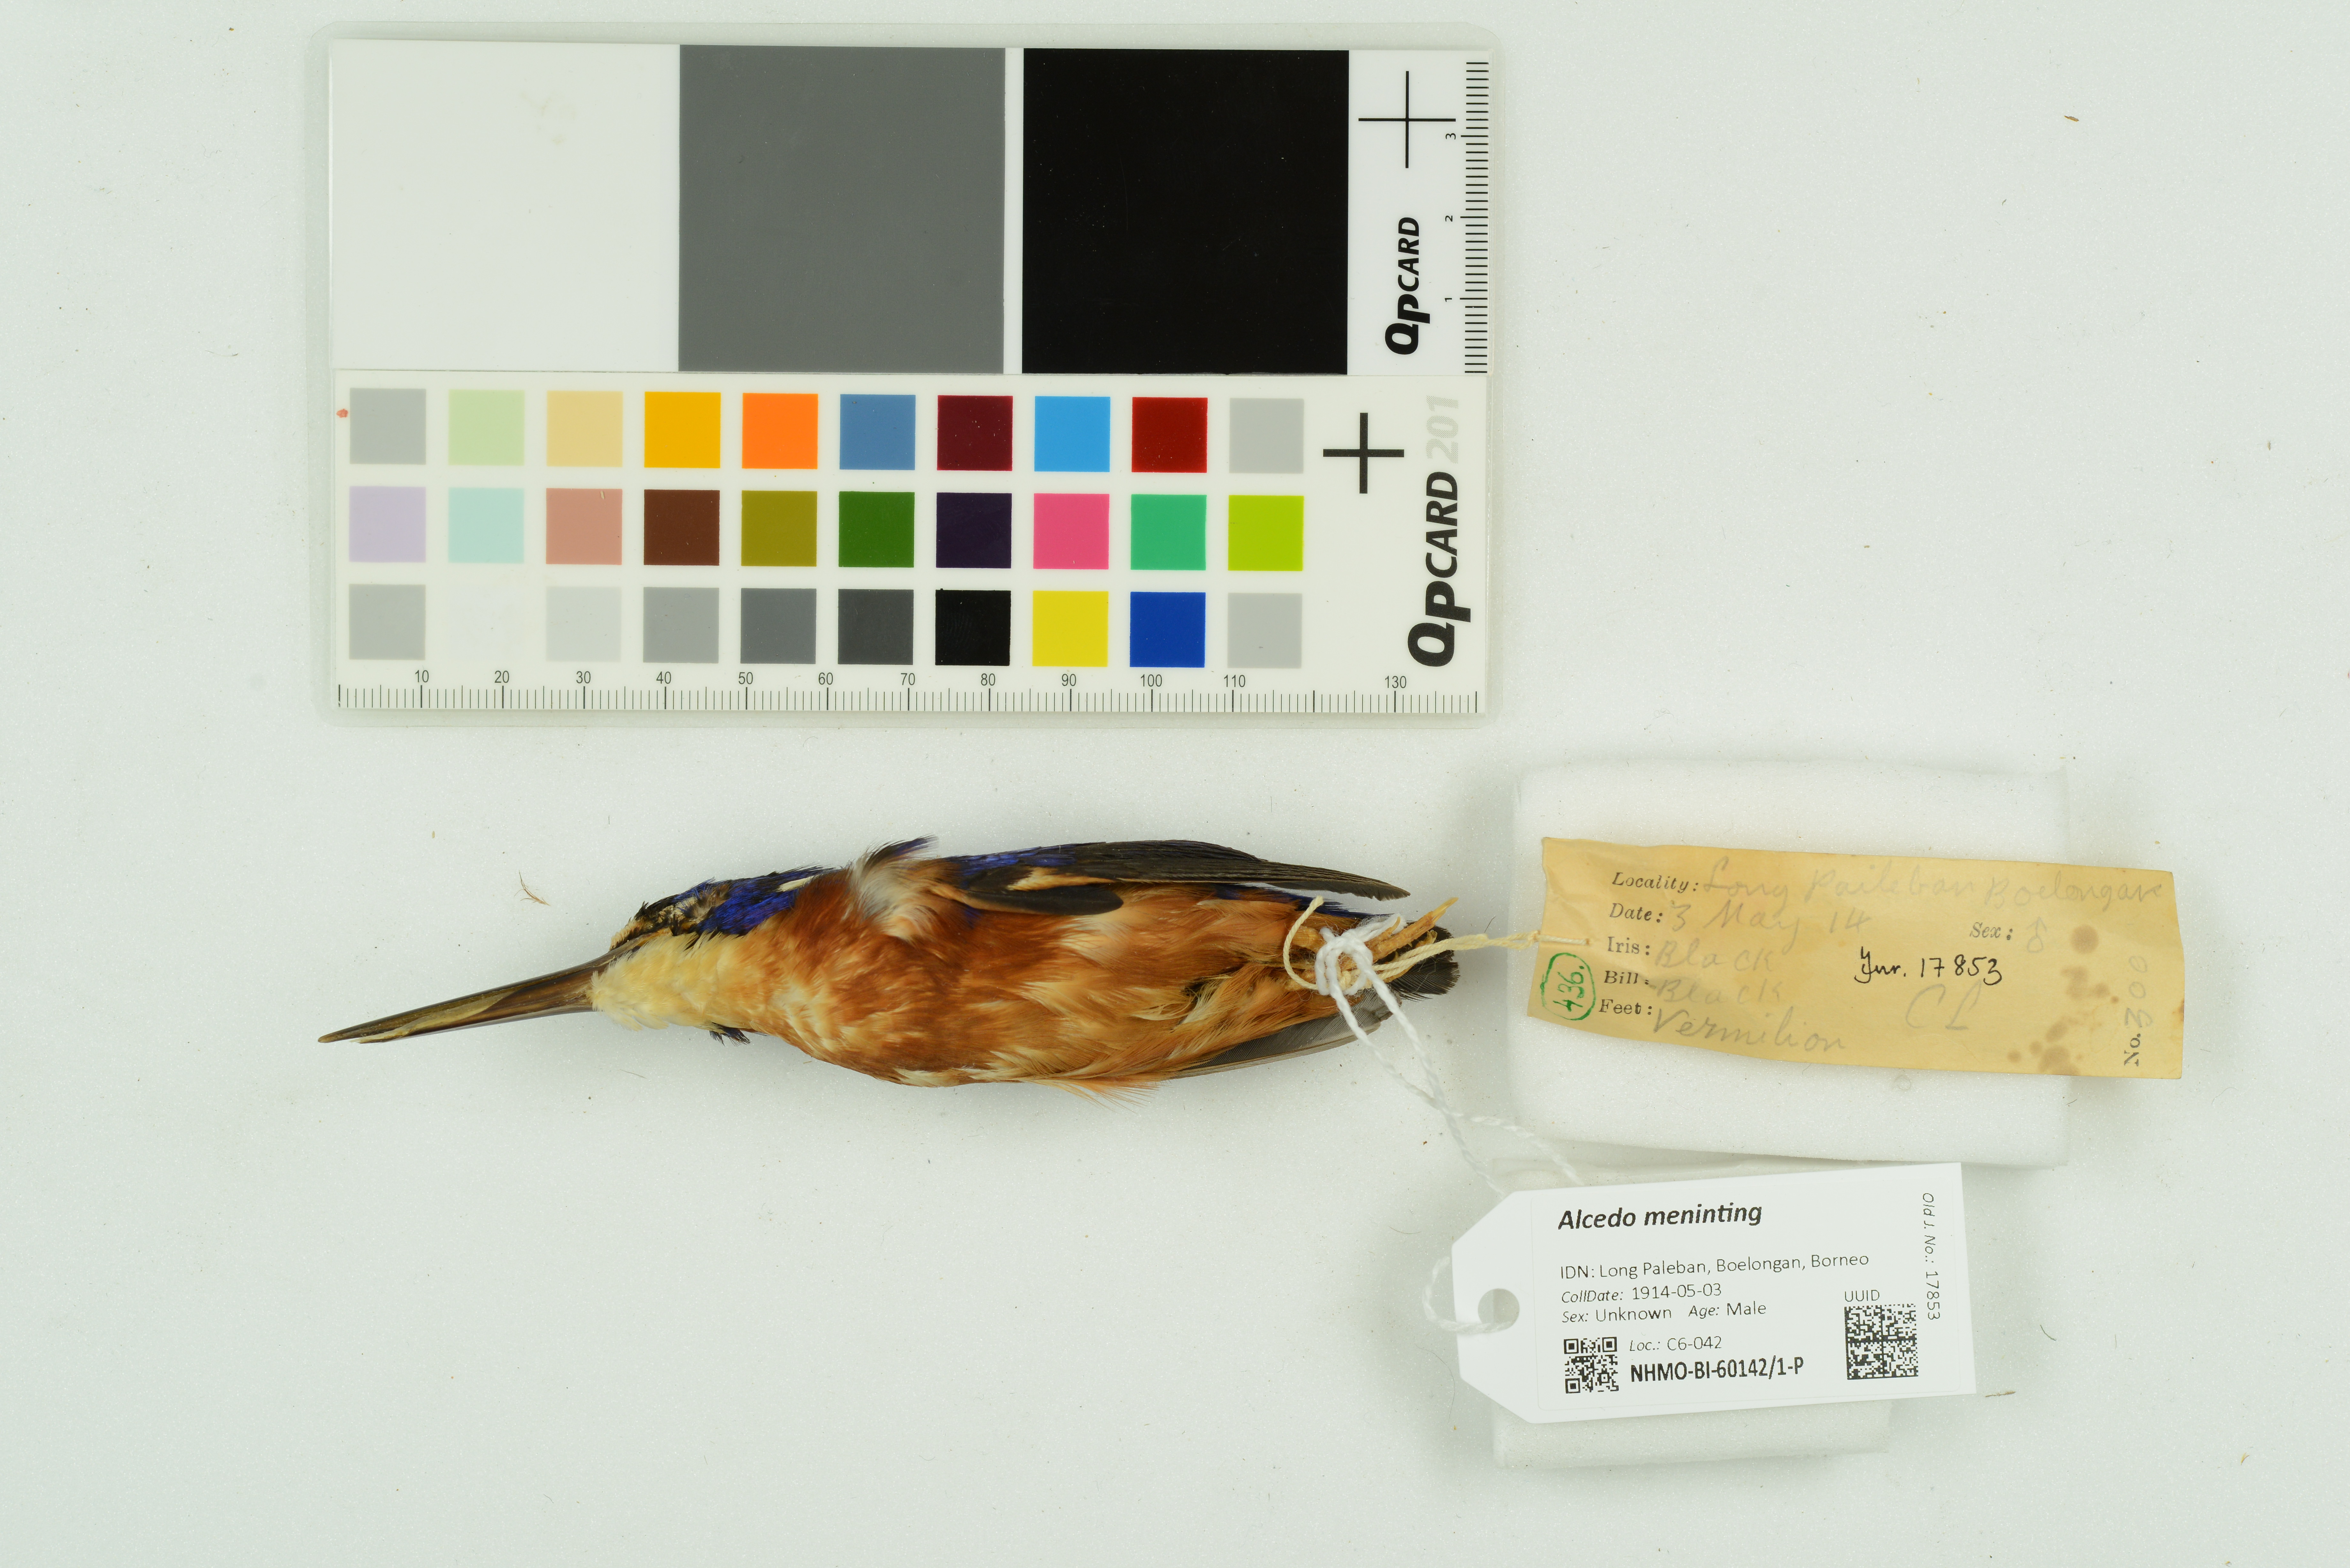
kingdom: Animalia
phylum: Chordata
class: Aves
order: Coraciiformes
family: Alcedinidae
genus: Alcedo
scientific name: Alcedo meninting
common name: Blue-eared kingfisher
